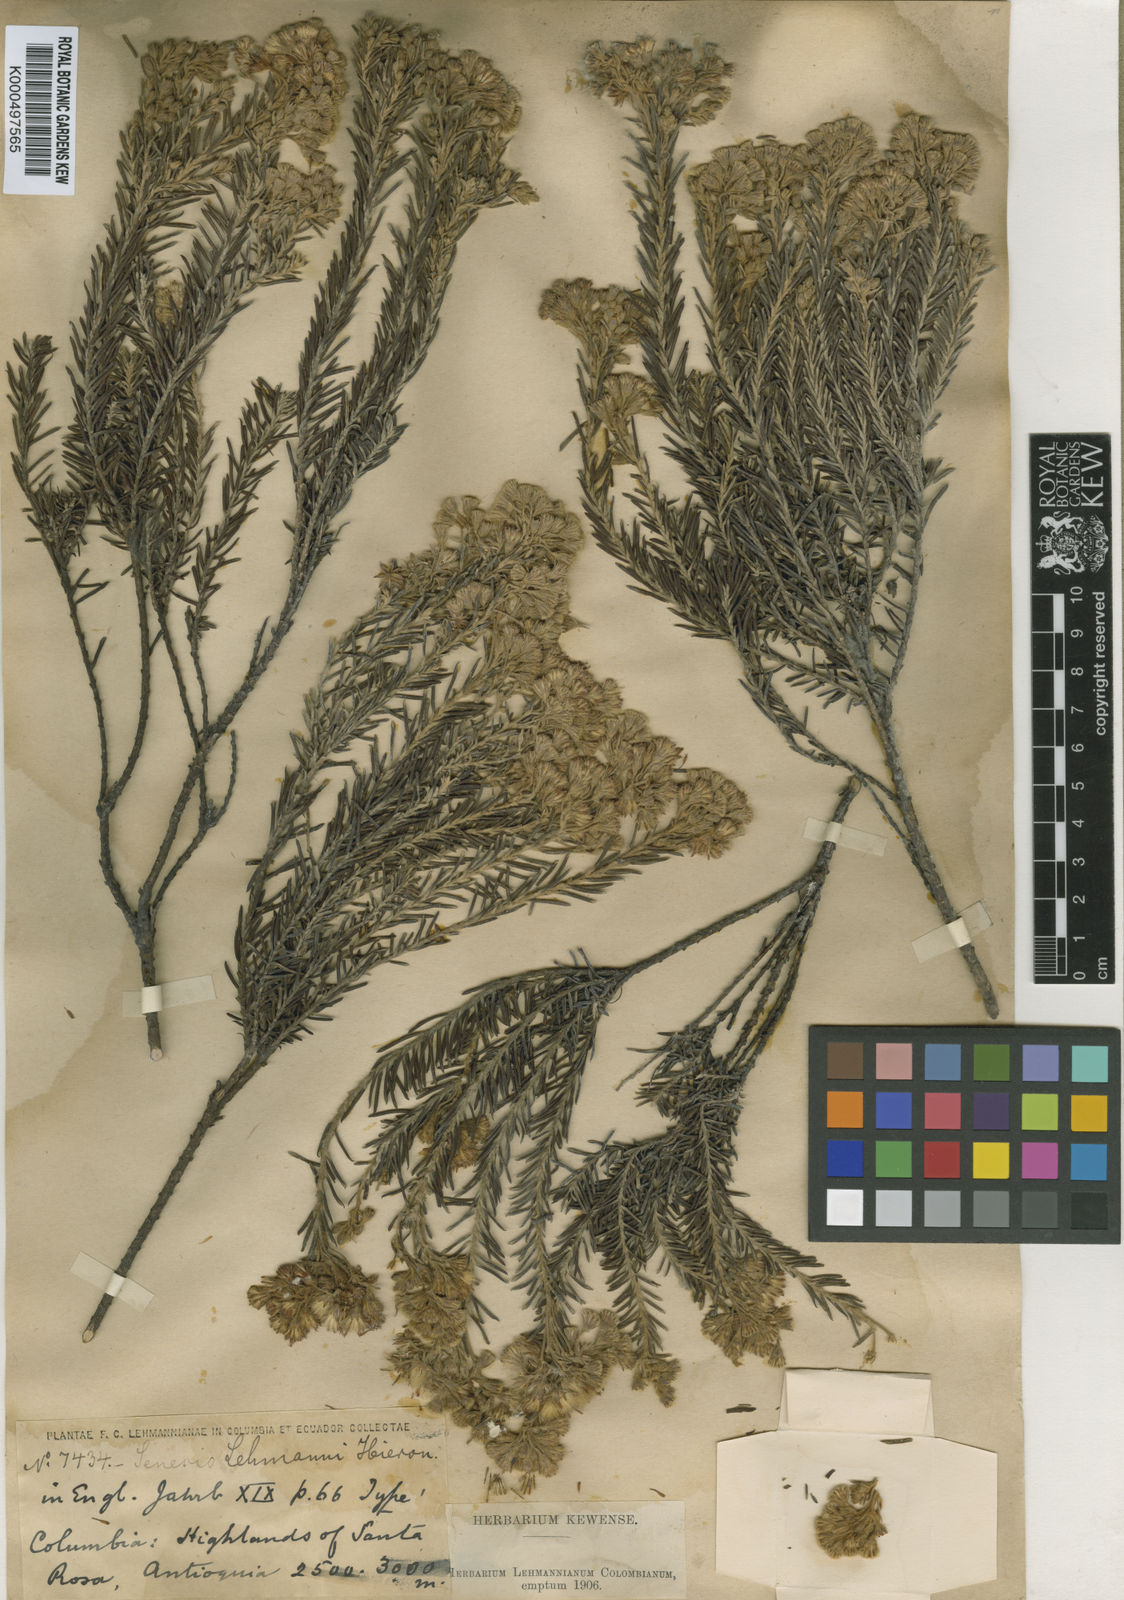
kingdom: Plantae
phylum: Tracheophyta
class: Magnoliopsida
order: Asterales
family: Asteraceae
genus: Monticalia
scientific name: Monticalia ledifolia
